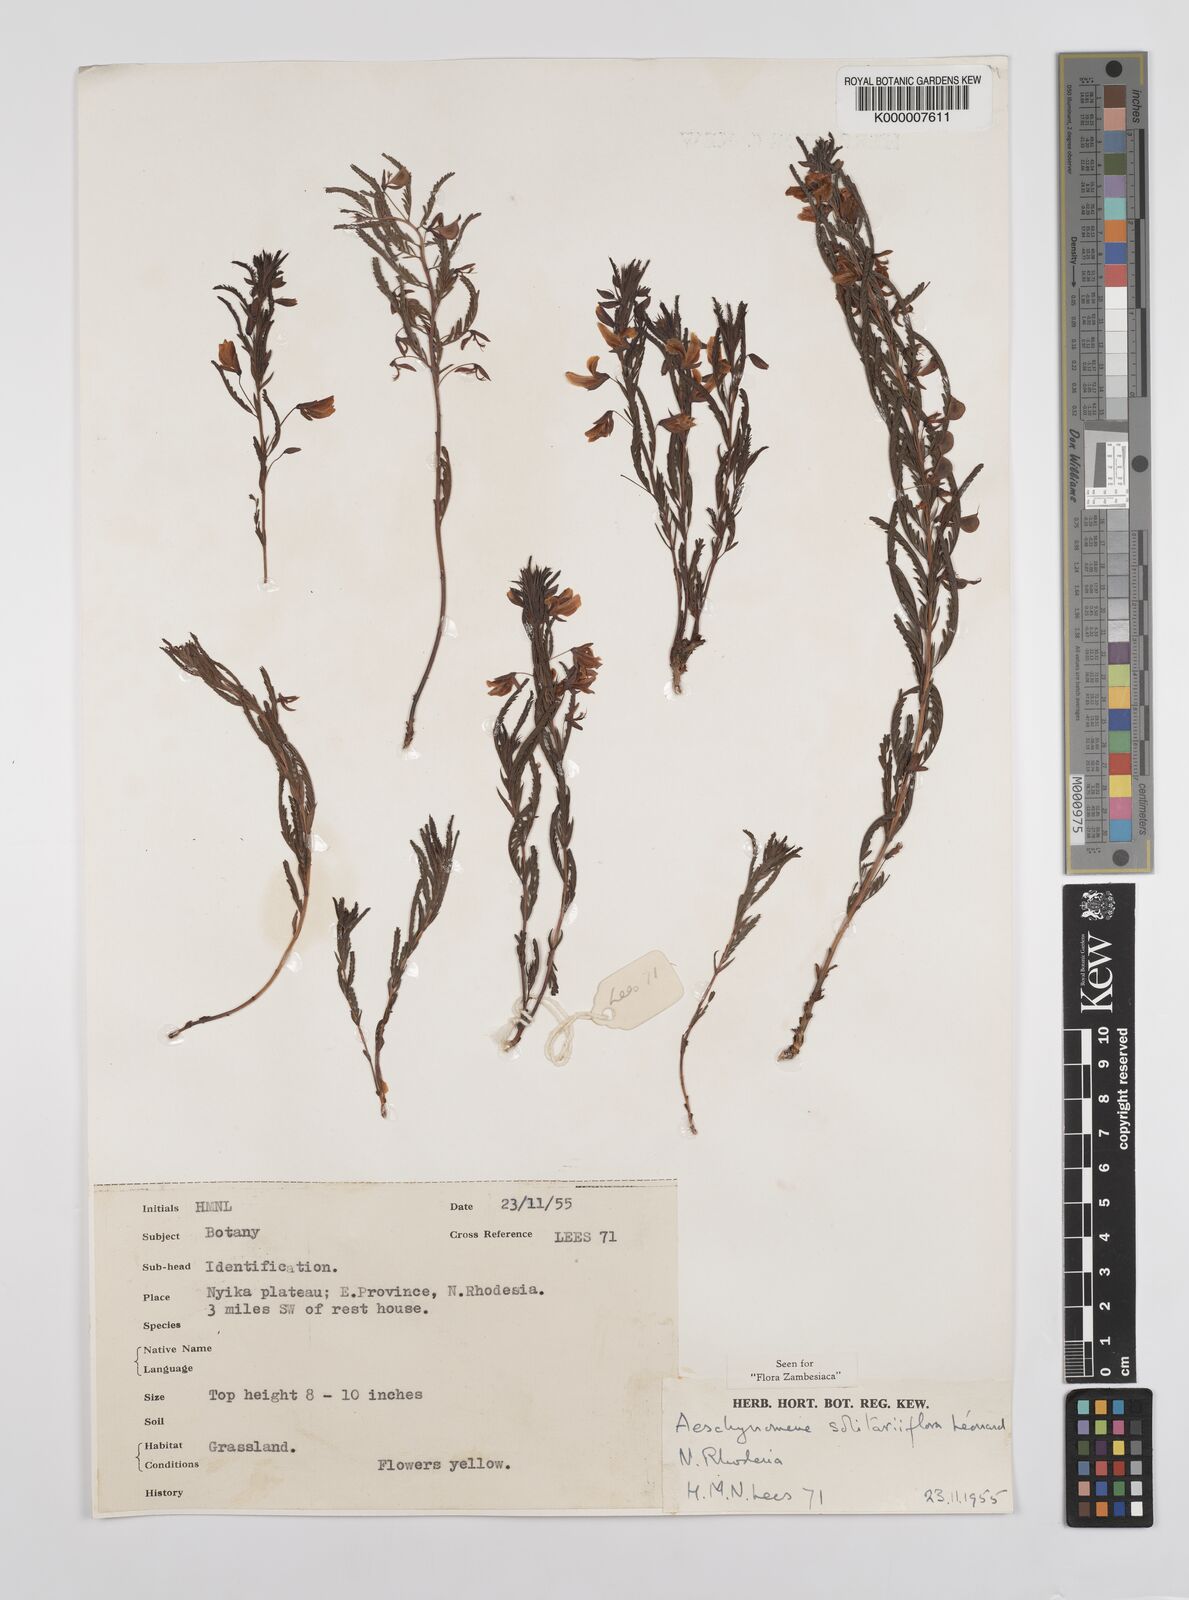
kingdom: Plantae
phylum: Tracheophyta
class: Magnoliopsida
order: Fabales
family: Fabaceae
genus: Aeschynomene
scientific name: Aeschynomene solitariiflora
